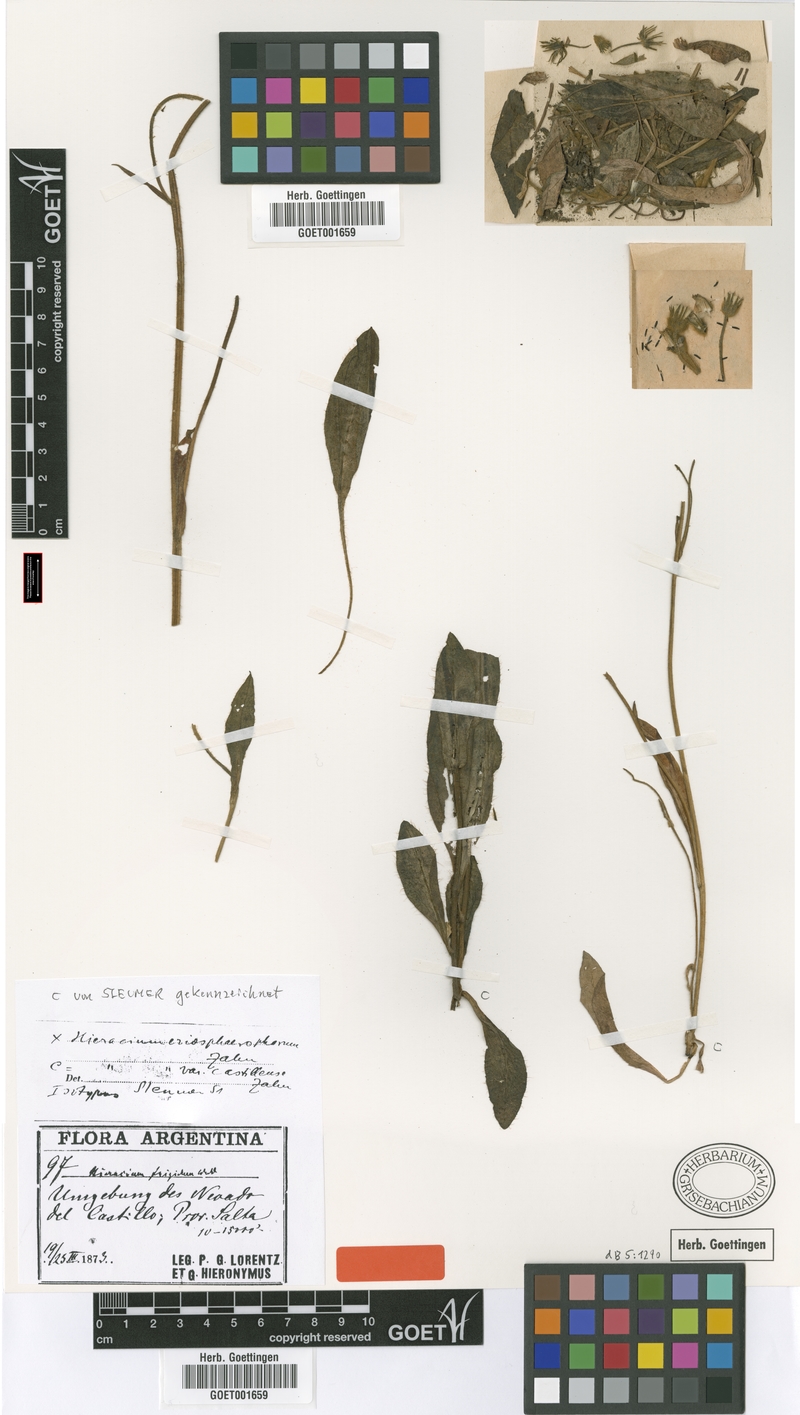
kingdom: Plantae
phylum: Tracheophyta
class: Magnoliopsida
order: Asterales
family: Asteraceae
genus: Hieracium
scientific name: Hieracium mandonii
